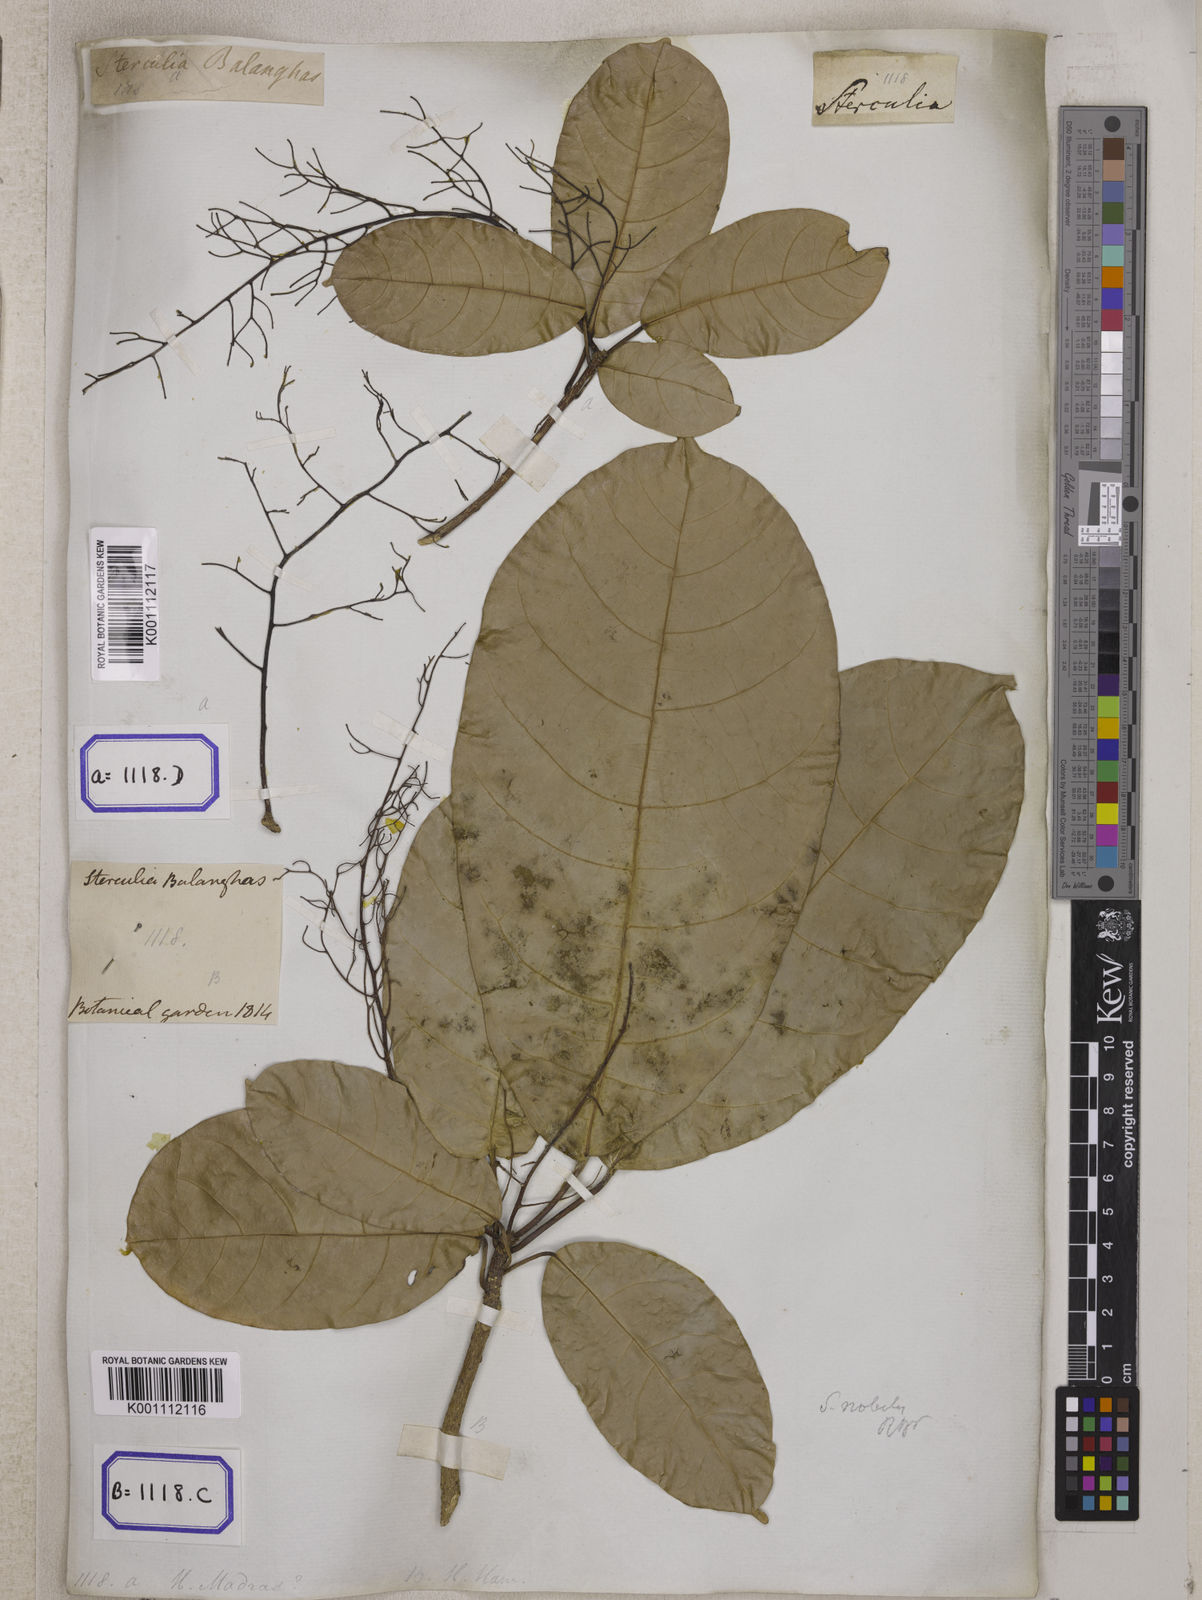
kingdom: Plantae
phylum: Tracheophyta
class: Magnoliopsida
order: Malvales
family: Malvaceae
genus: Sterculia
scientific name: Sterculia balanghas
